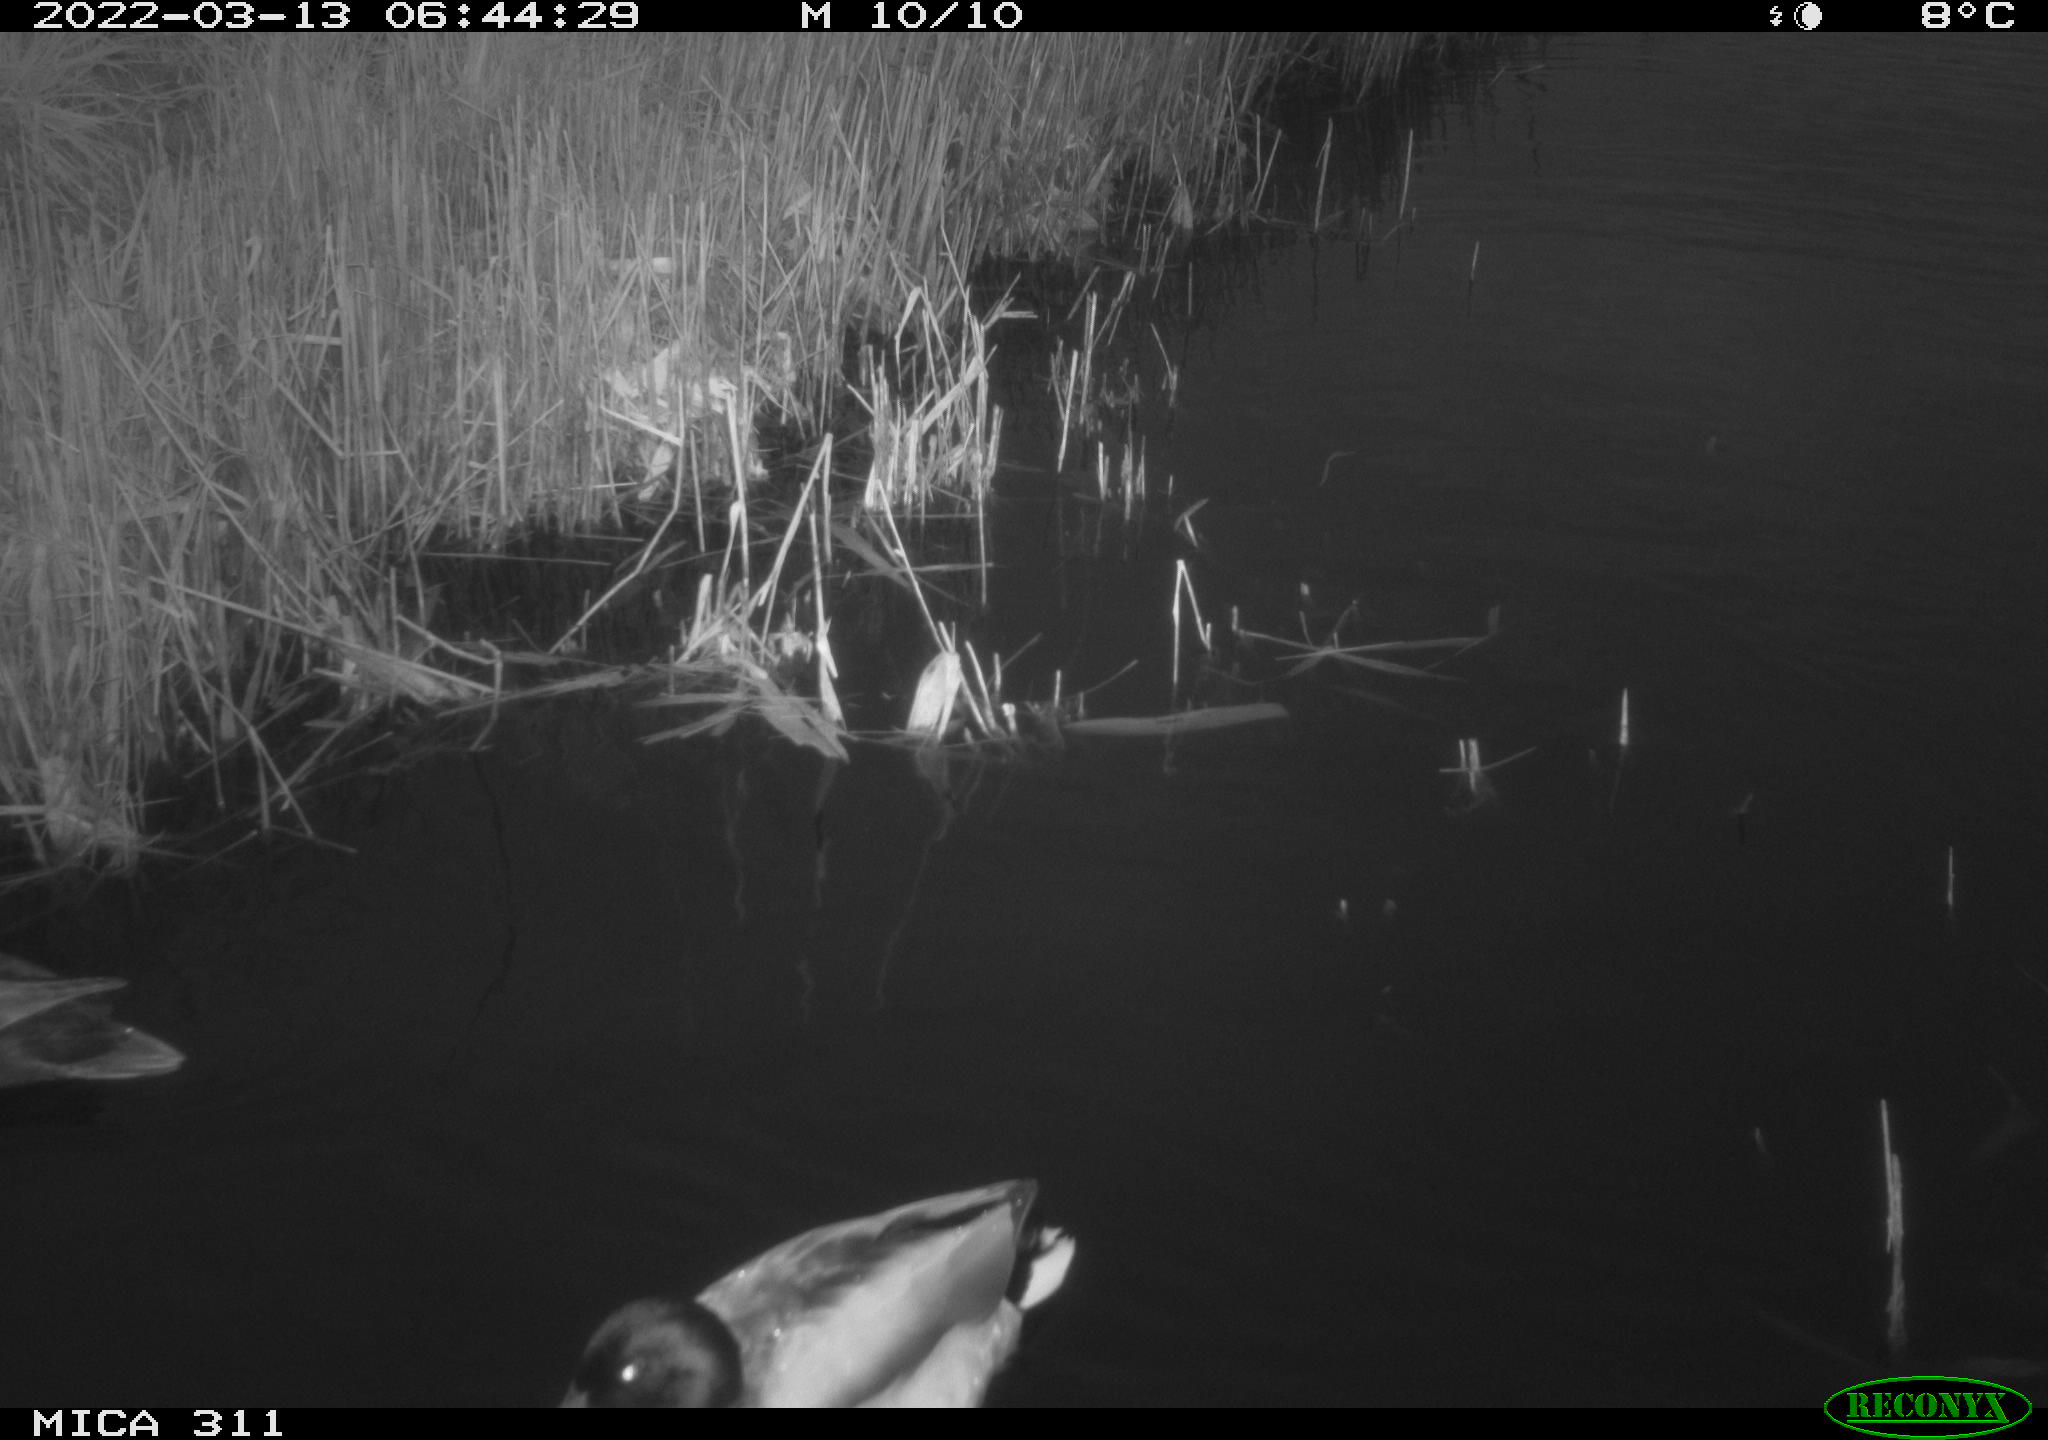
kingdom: Animalia
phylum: Chordata
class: Aves
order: Anseriformes
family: Anatidae
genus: Anas
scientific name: Anas
